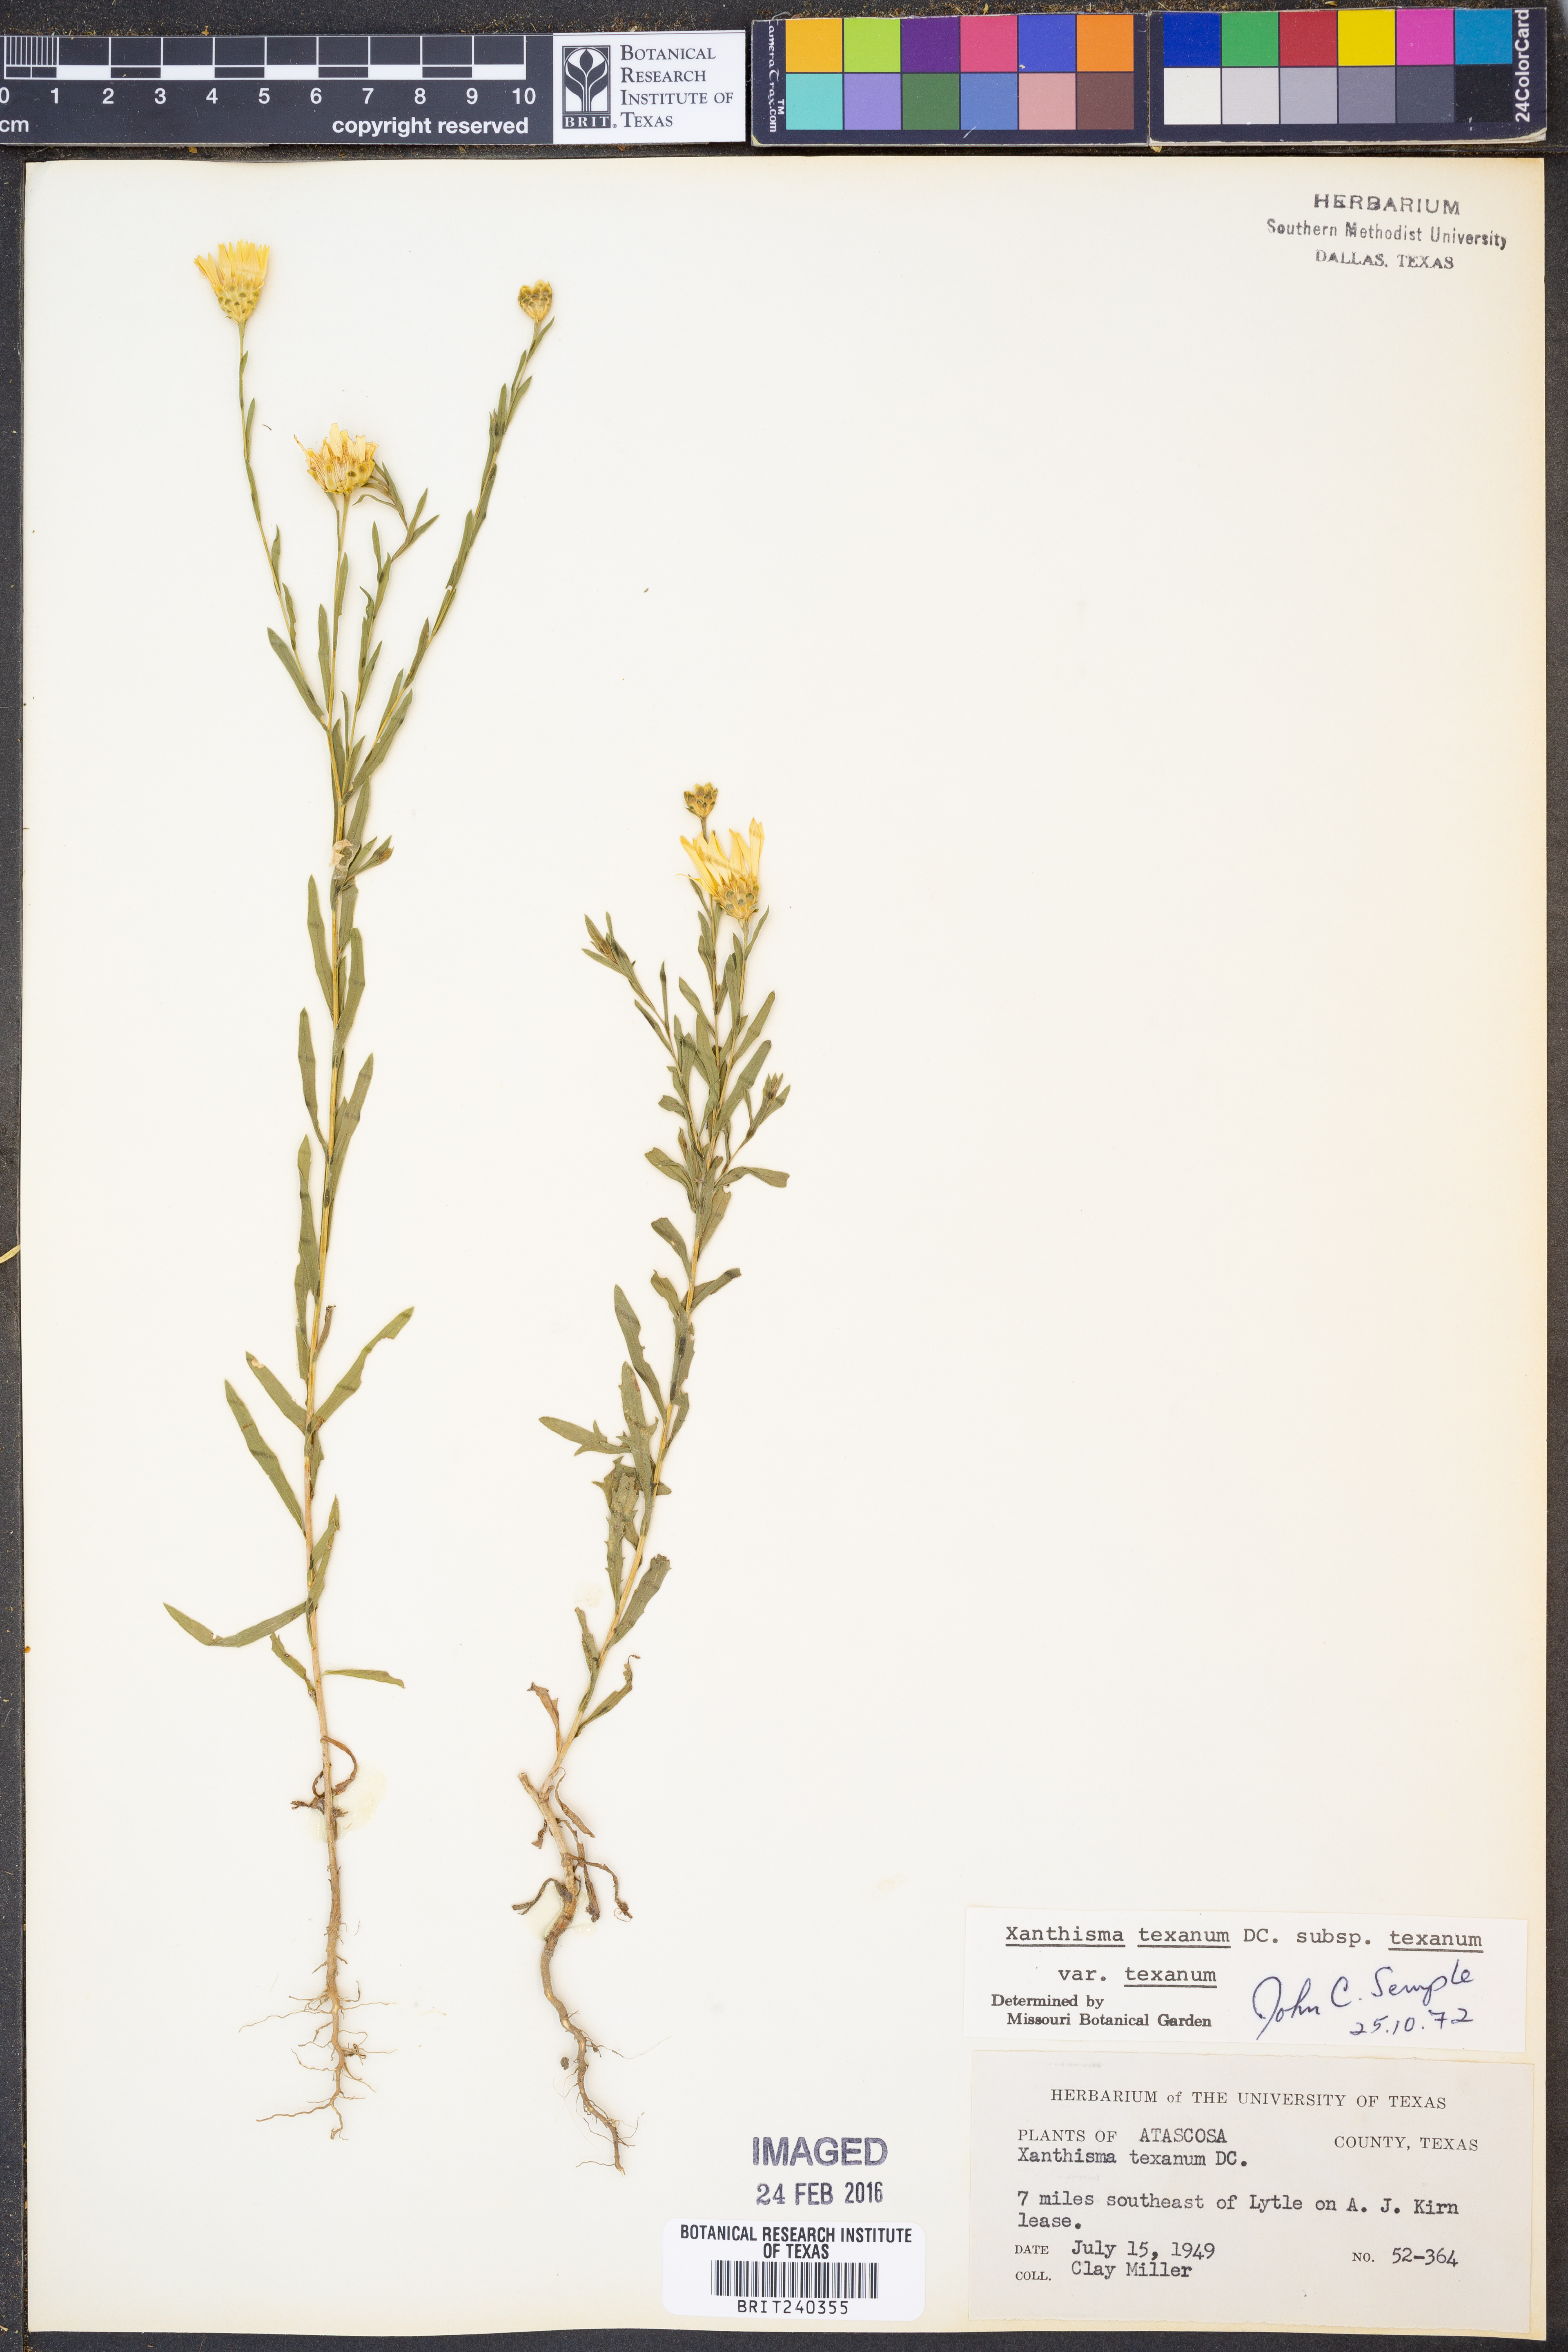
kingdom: Plantae
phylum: Tracheophyta
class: Magnoliopsida
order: Asterales
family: Asteraceae
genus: Xanthisma
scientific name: Xanthisma texanum
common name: Texas sleepy daisy
